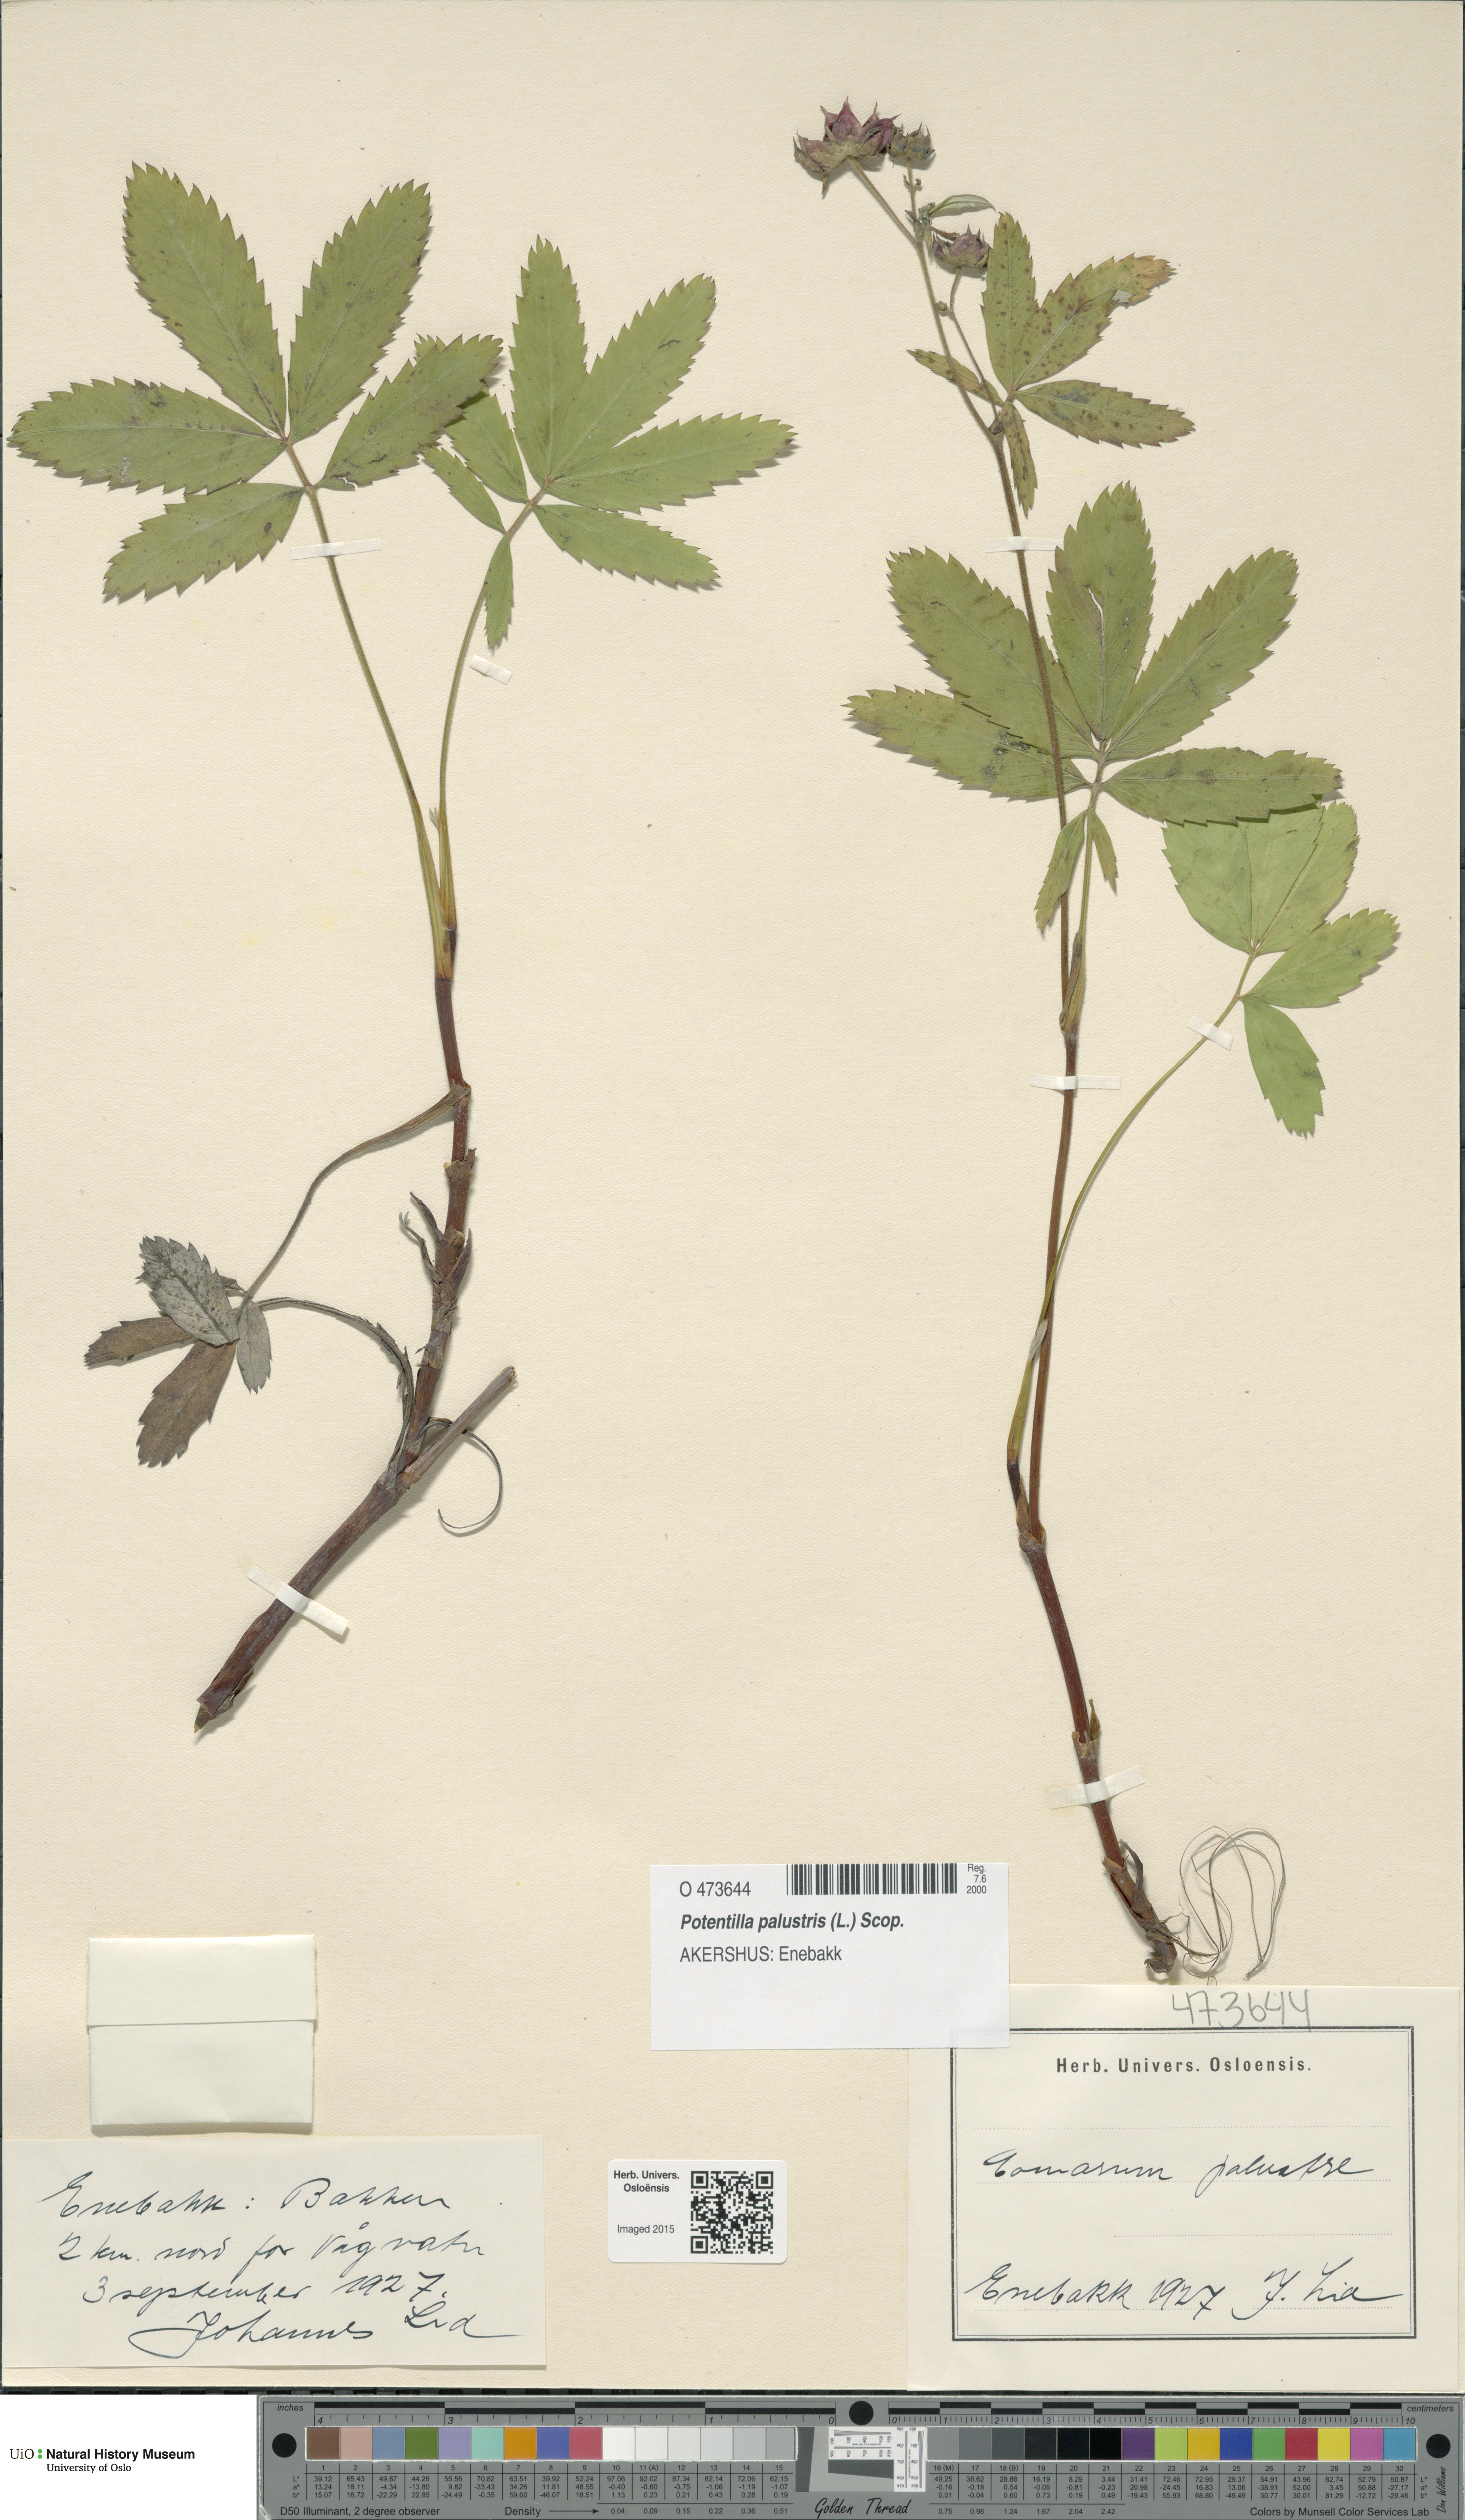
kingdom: Plantae
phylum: Tracheophyta
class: Magnoliopsida
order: Rosales
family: Rosaceae
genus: Comarum
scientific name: Comarum palustre
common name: Marsh cinquefoil
